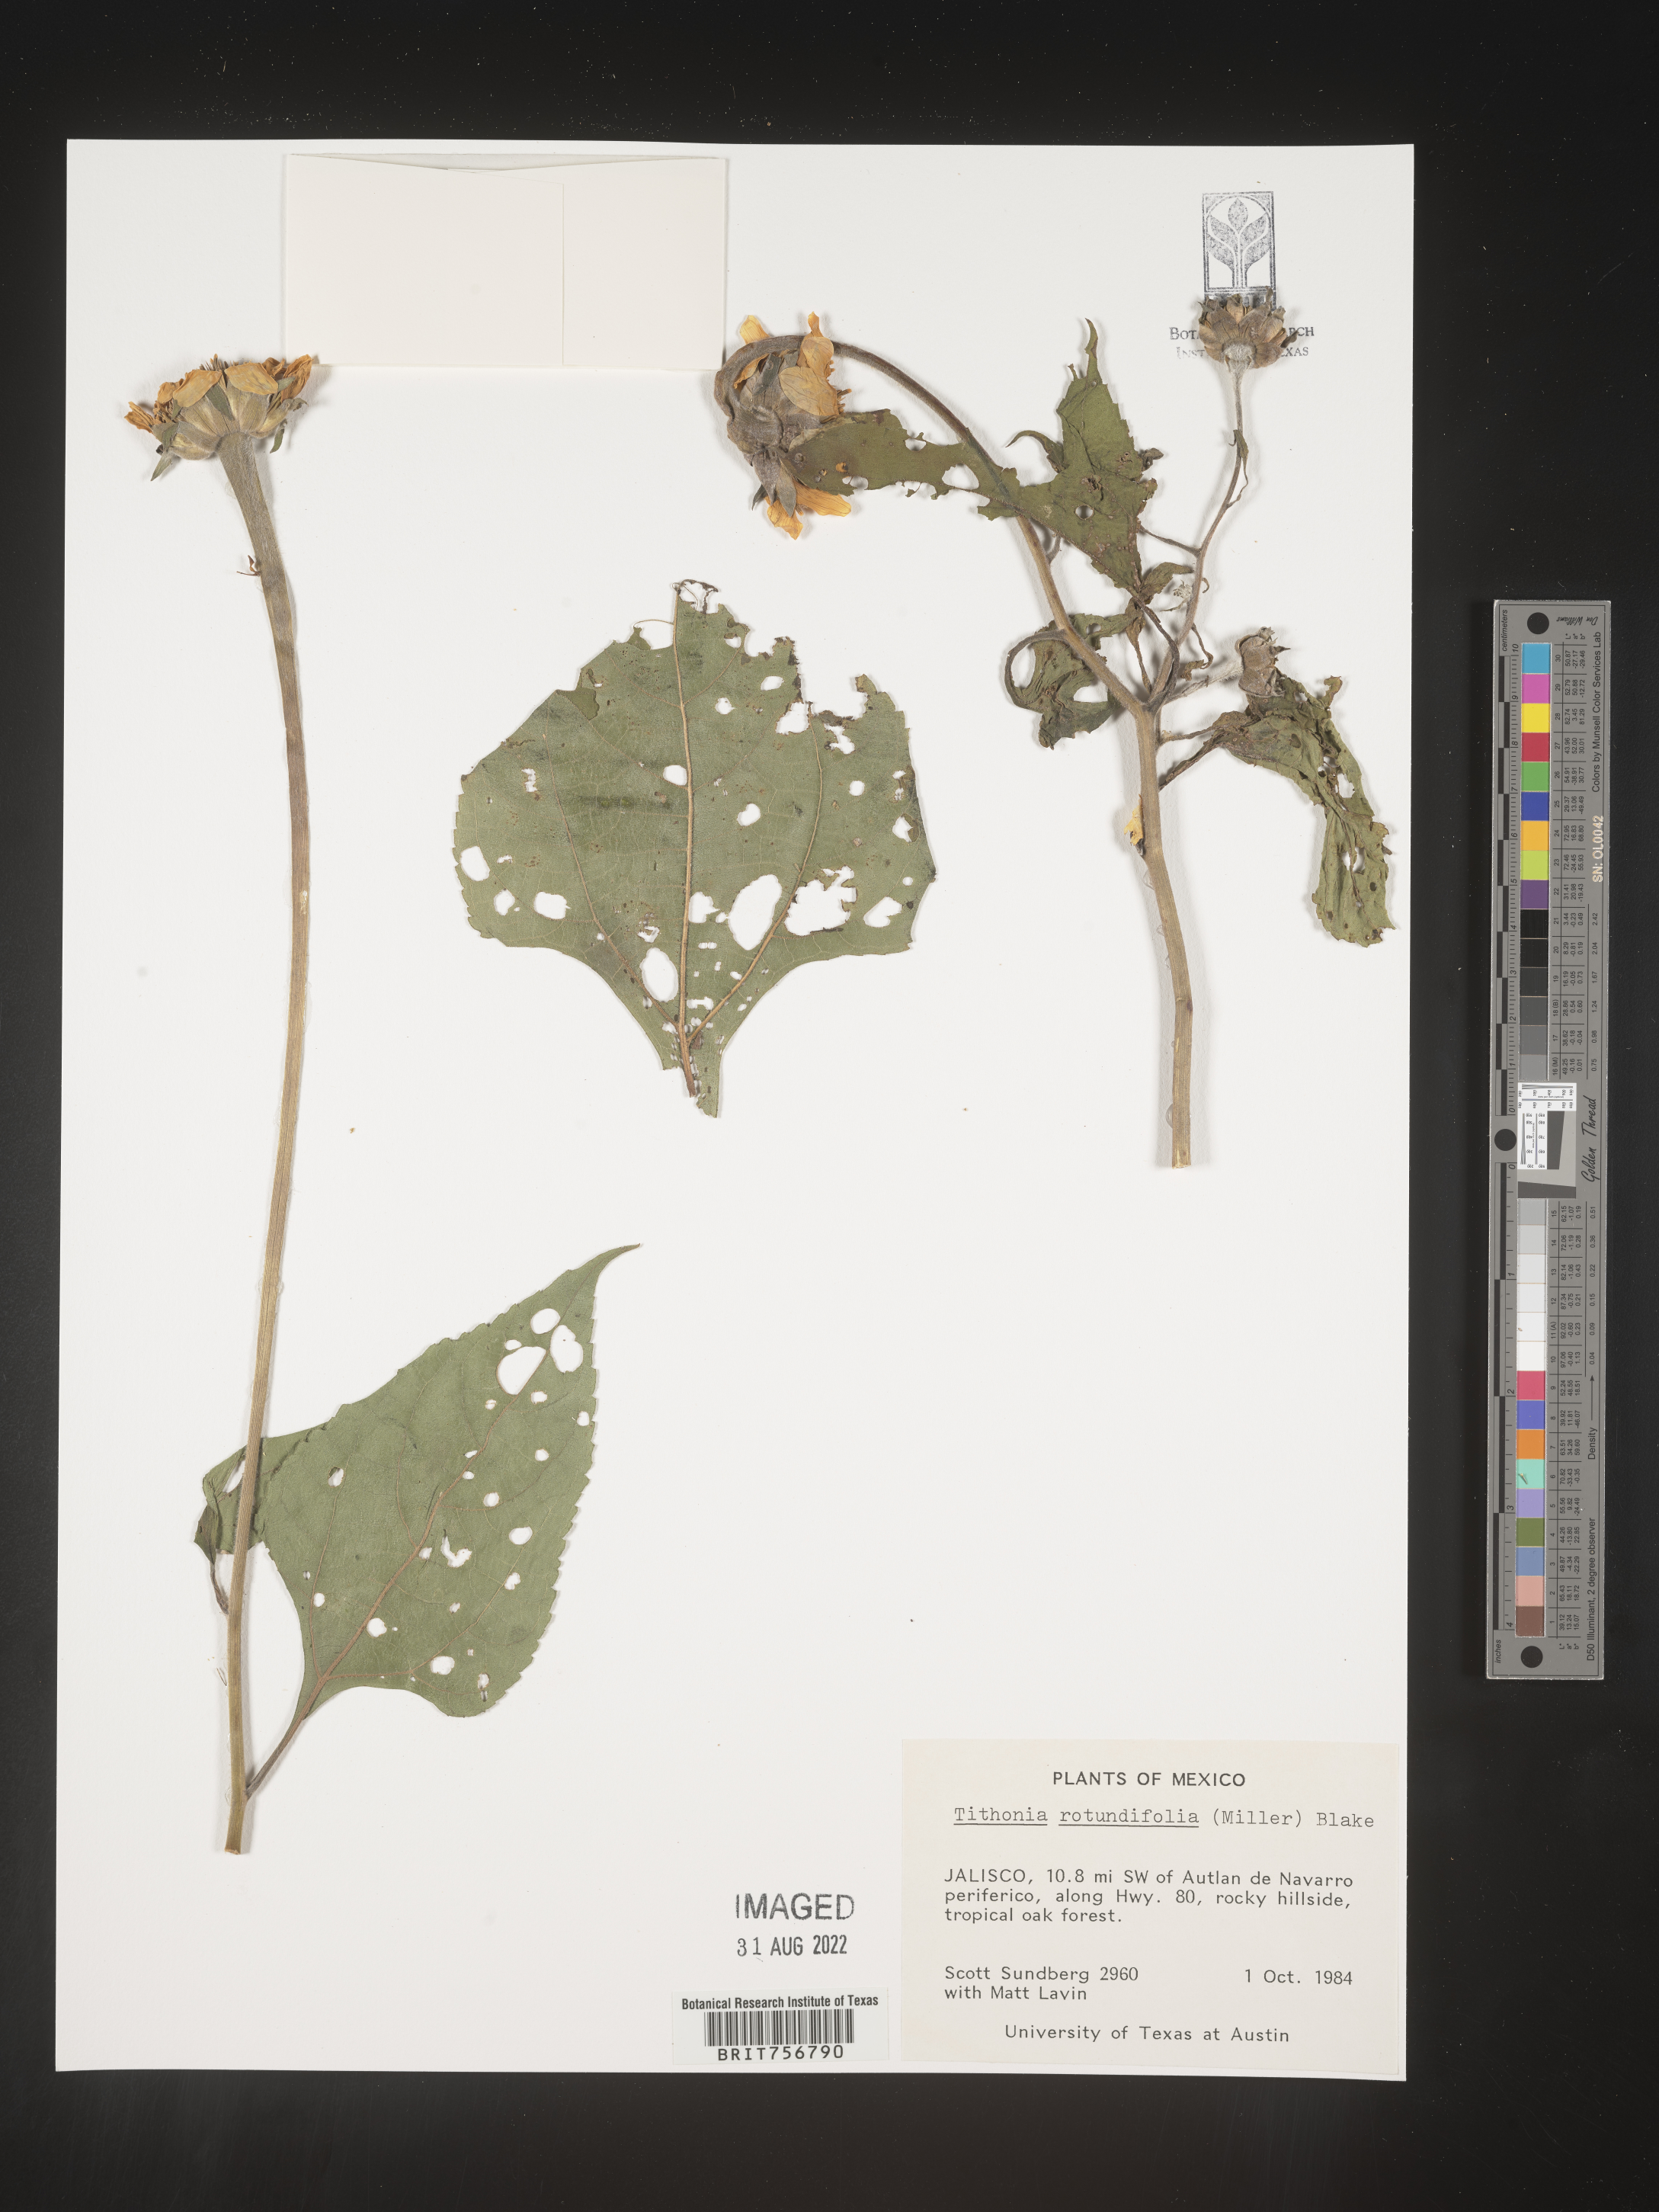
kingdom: Plantae
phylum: Tracheophyta
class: Magnoliopsida
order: Asterales
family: Asteraceae
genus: Tithonia
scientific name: Tithonia
